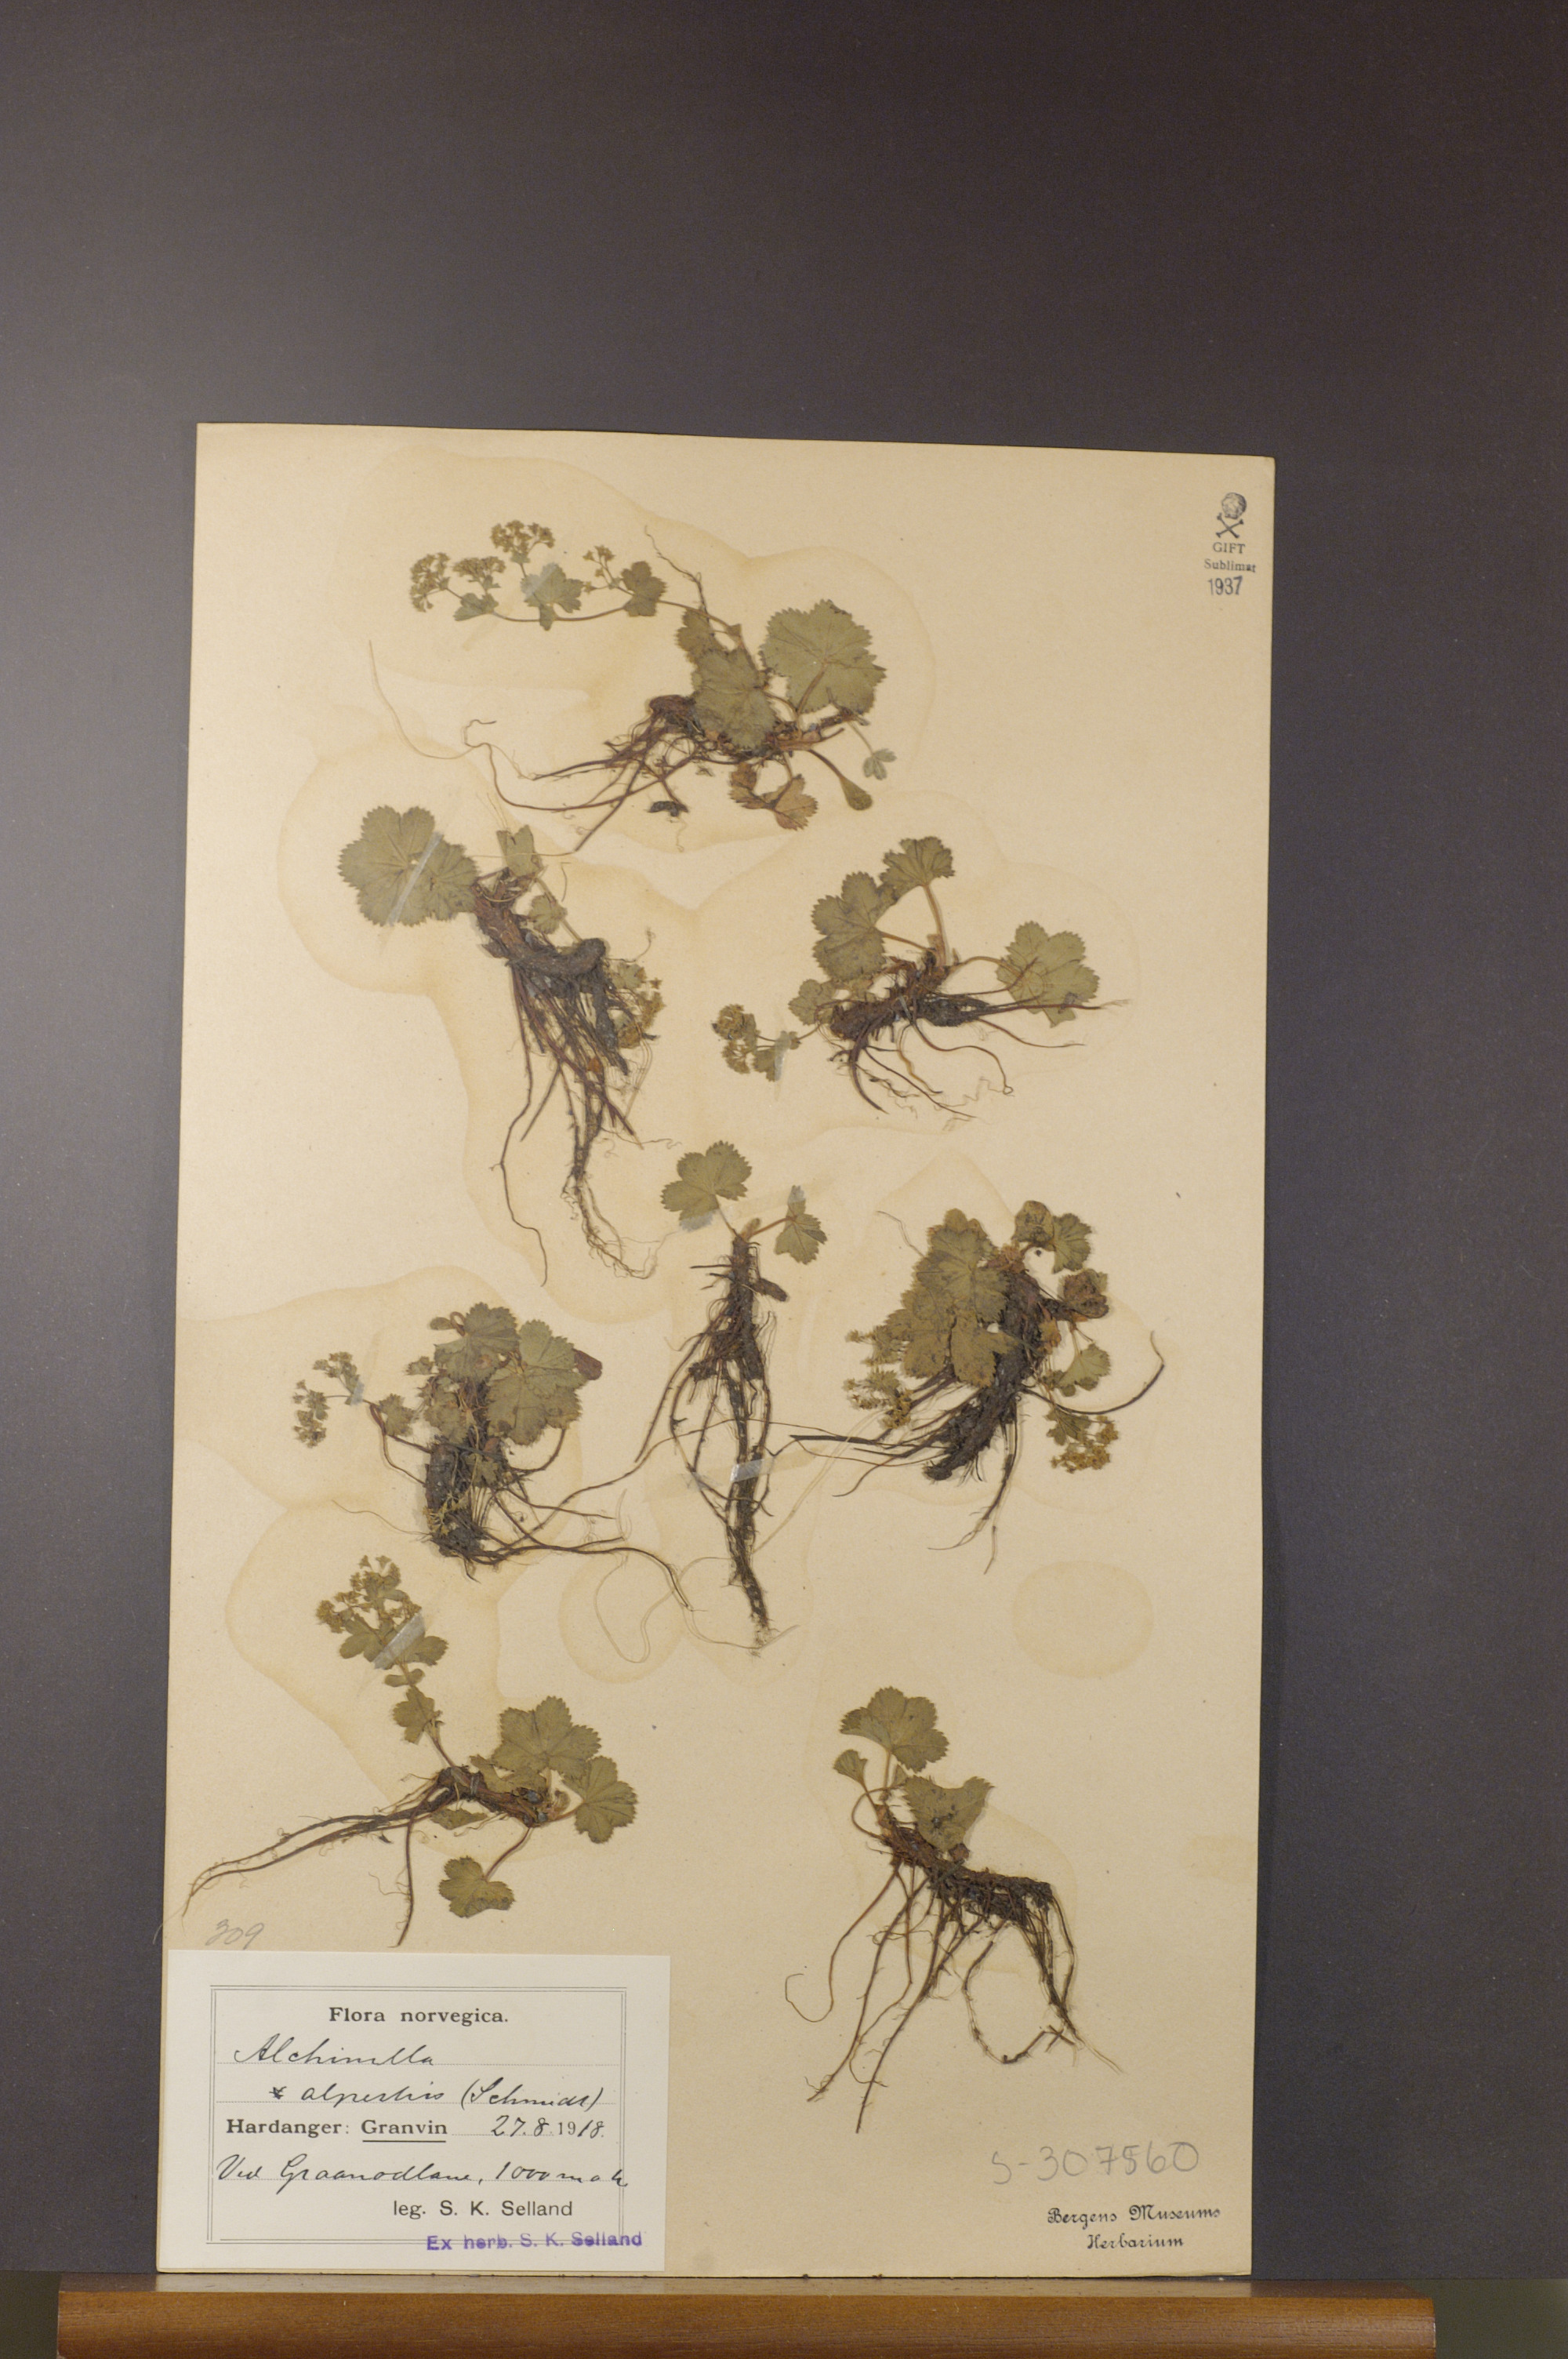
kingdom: Plantae
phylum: Tracheophyta
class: Magnoliopsida
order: Rosales
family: Rosaceae
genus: Alchemilla
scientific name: Alchemilla glabra
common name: Smooth lady's-mantle
